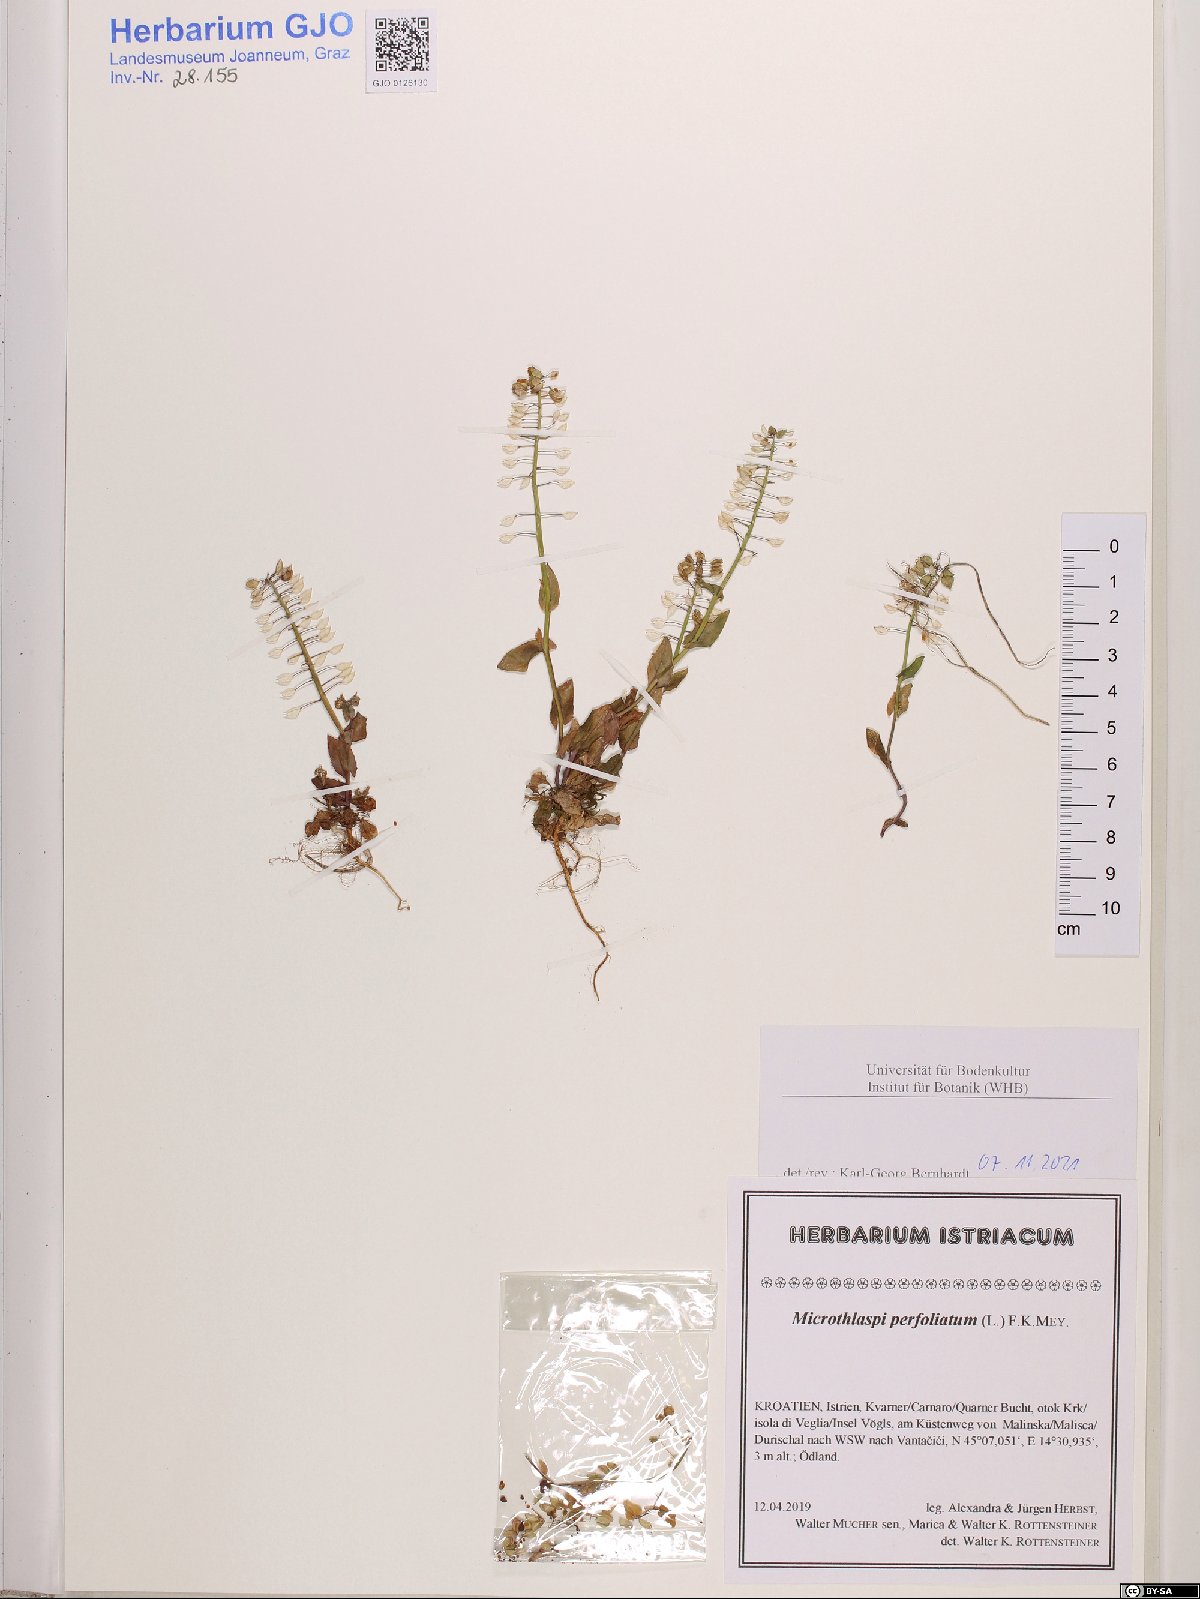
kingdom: Plantae
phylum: Tracheophyta
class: Magnoliopsida
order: Brassicales
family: Brassicaceae
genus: Noccaea
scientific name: Noccaea perfoliata
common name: Perfoliate pennycress
